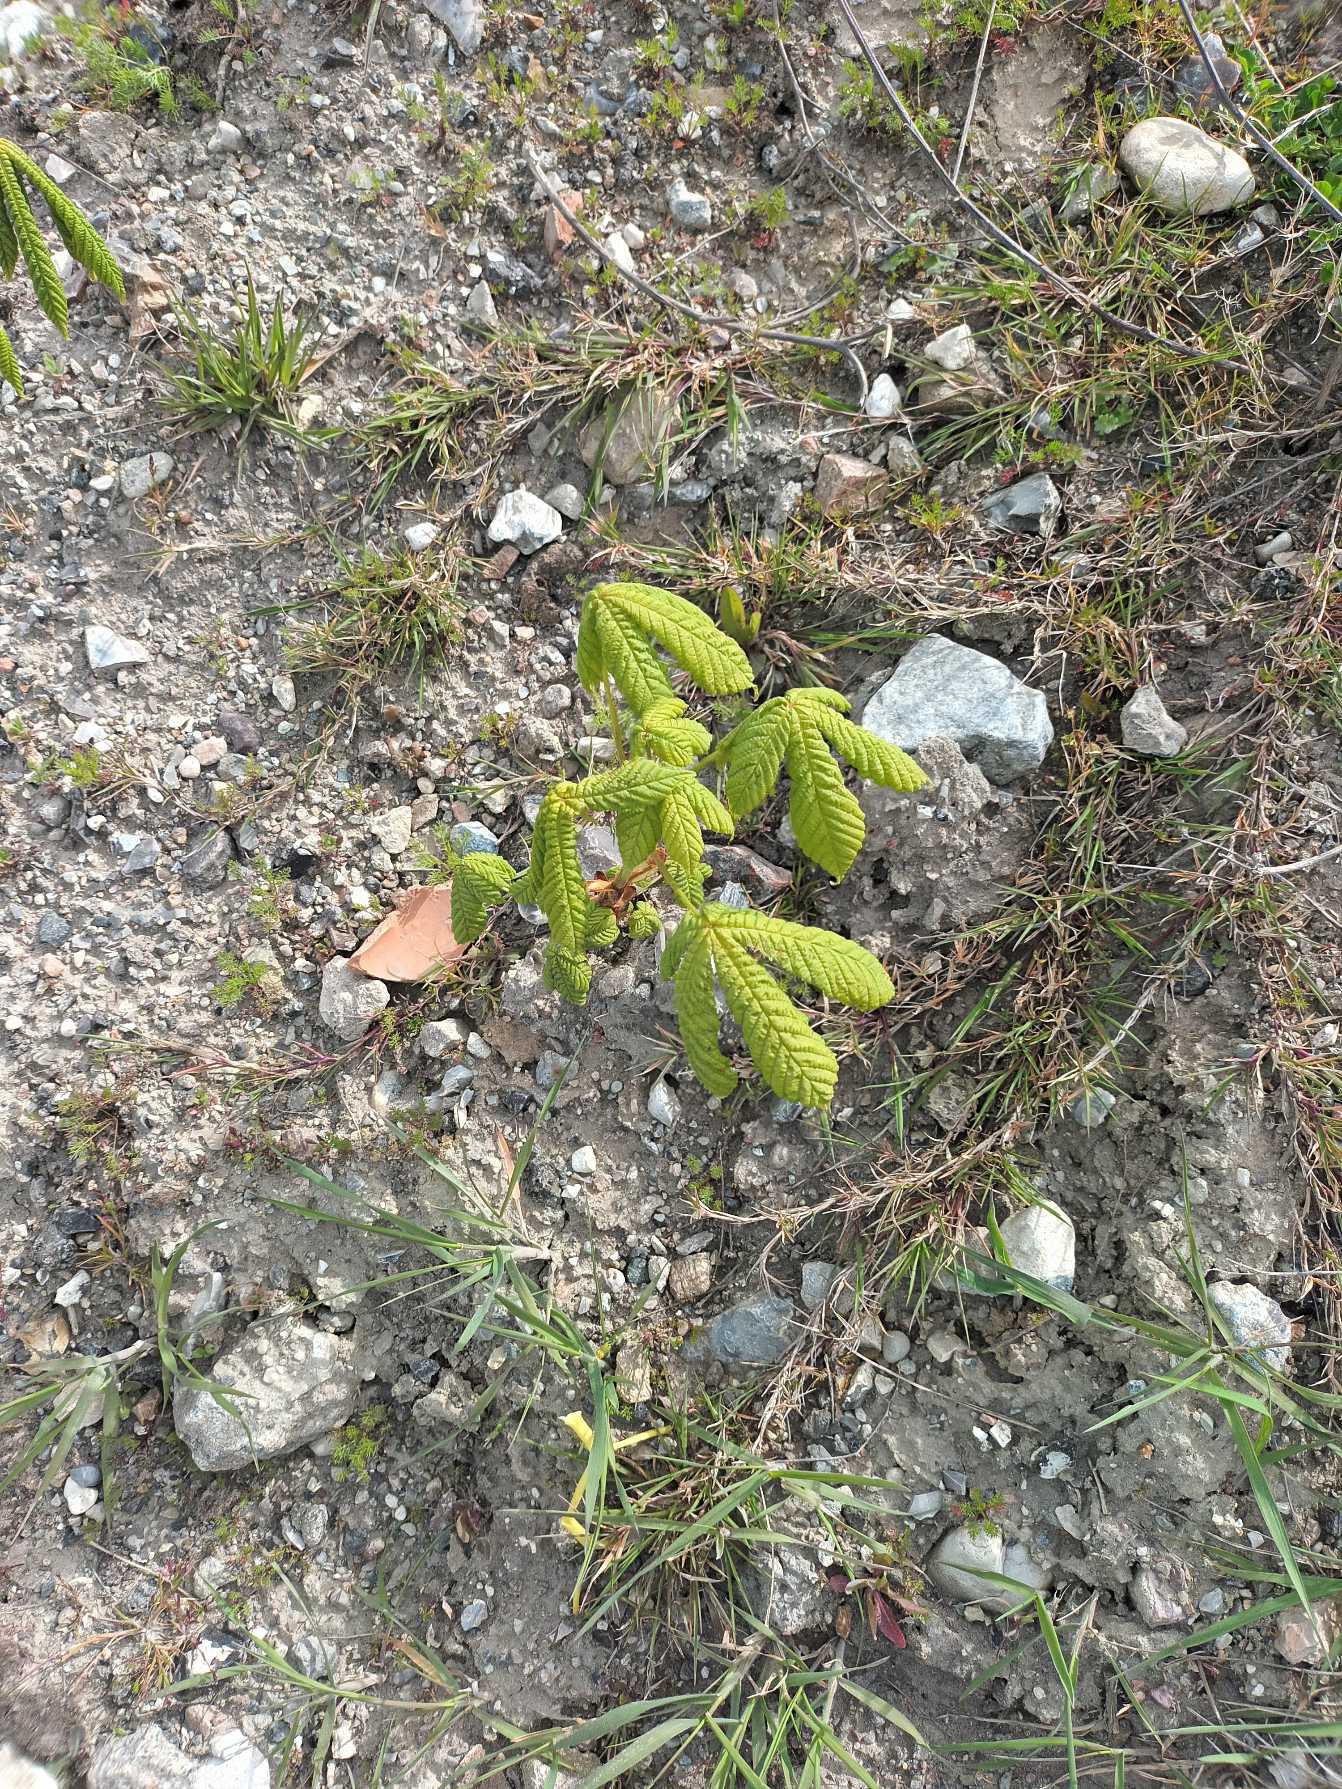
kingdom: Plantae
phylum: Tracheophyta
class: Magnoliopsida
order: Sapindales
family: Sapindaceae
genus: Aesculus
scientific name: Aesculus hippocastanum
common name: Hestekastanie
